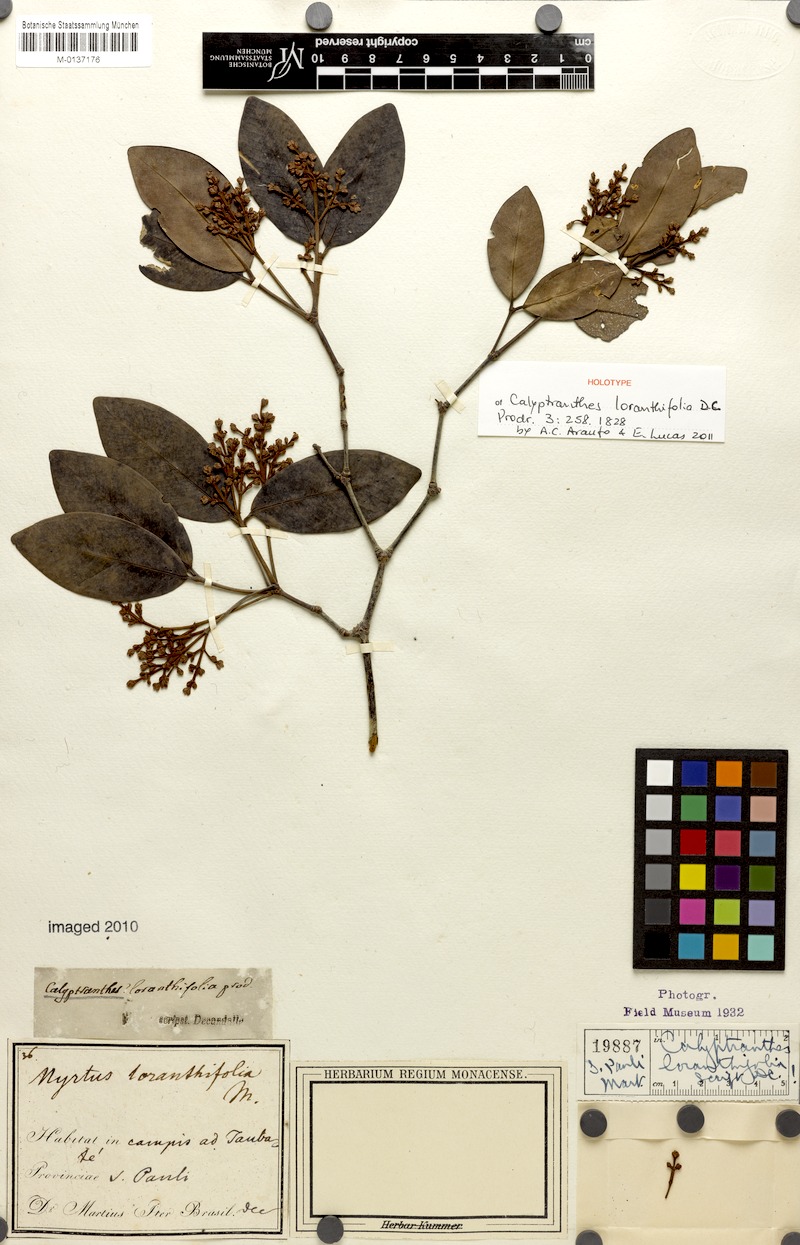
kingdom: Plantae
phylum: Tracheophyta
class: Magnoliopsida
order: Myrtales
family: Myrtaceae
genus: Myrcia
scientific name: Myrcia loranthifolia
